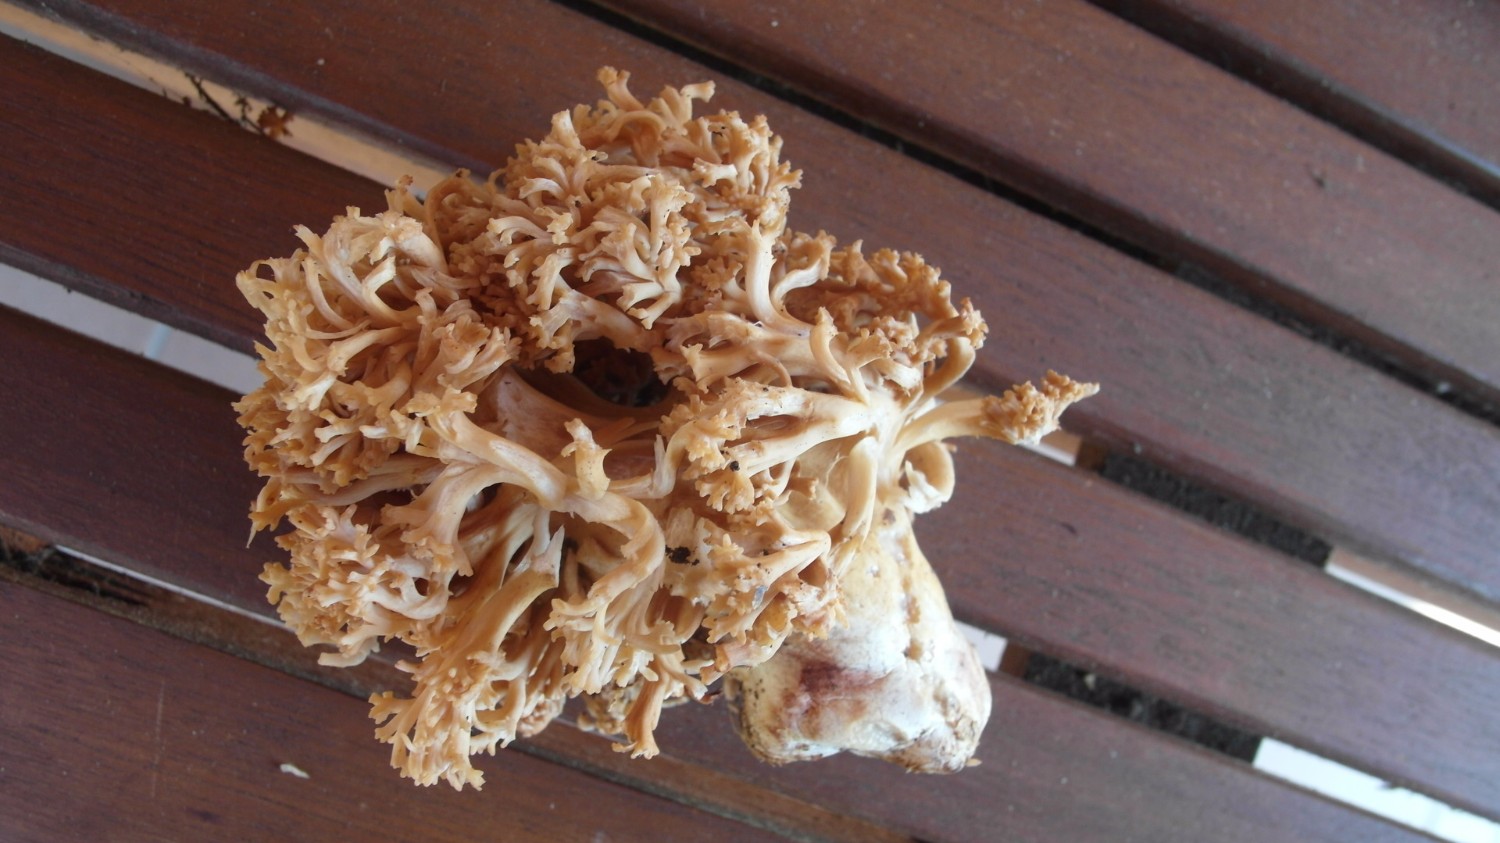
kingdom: Fungi
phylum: Basidiomycota
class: Agaricomycetes
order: Gomphales
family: Gomphaceae
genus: Ramaria
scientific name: Ramaria sanguinea
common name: blodplettet koralsvamp
